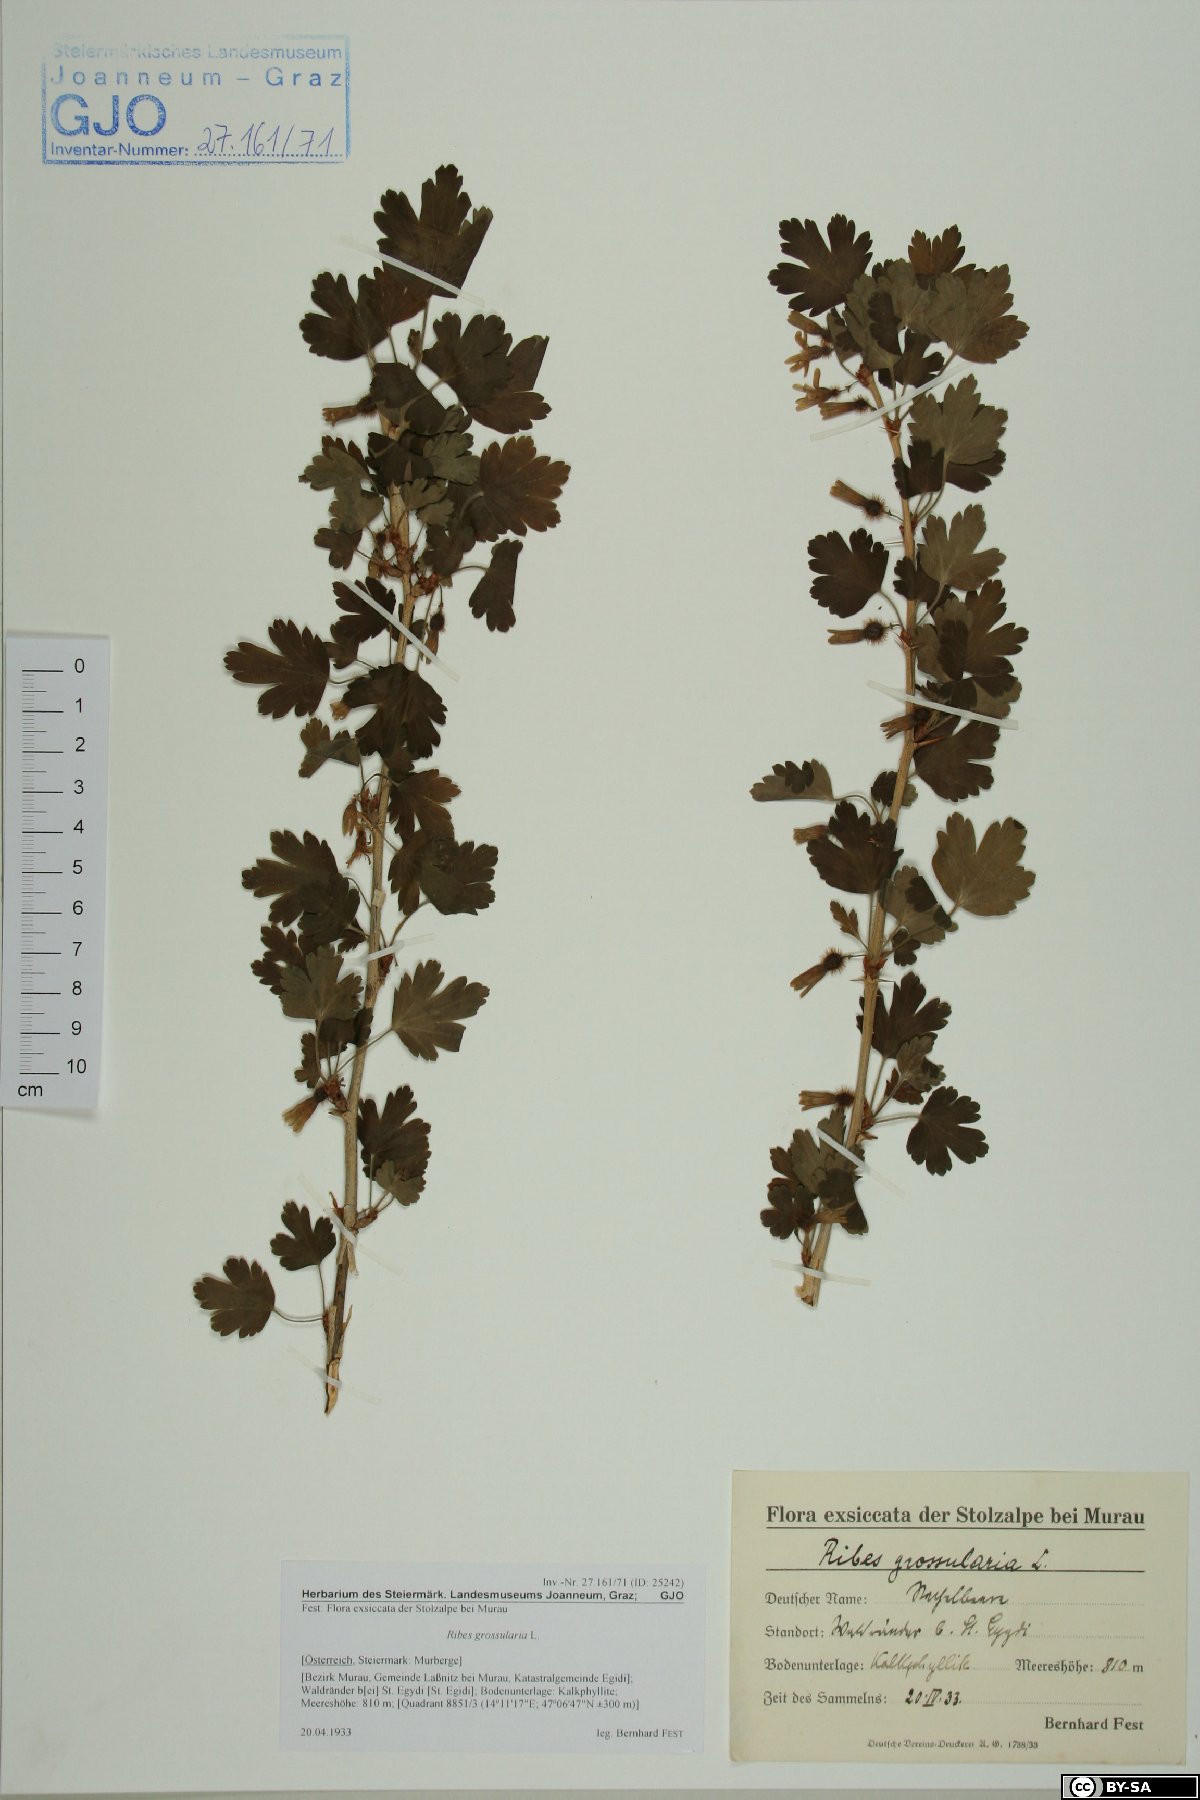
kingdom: Plantae
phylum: Tracheophyta
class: Magnoliopsida
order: Saxifragales
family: Grossulariaceae
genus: Ribes
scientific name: Ribes uva-crispa
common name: Gooseberry
